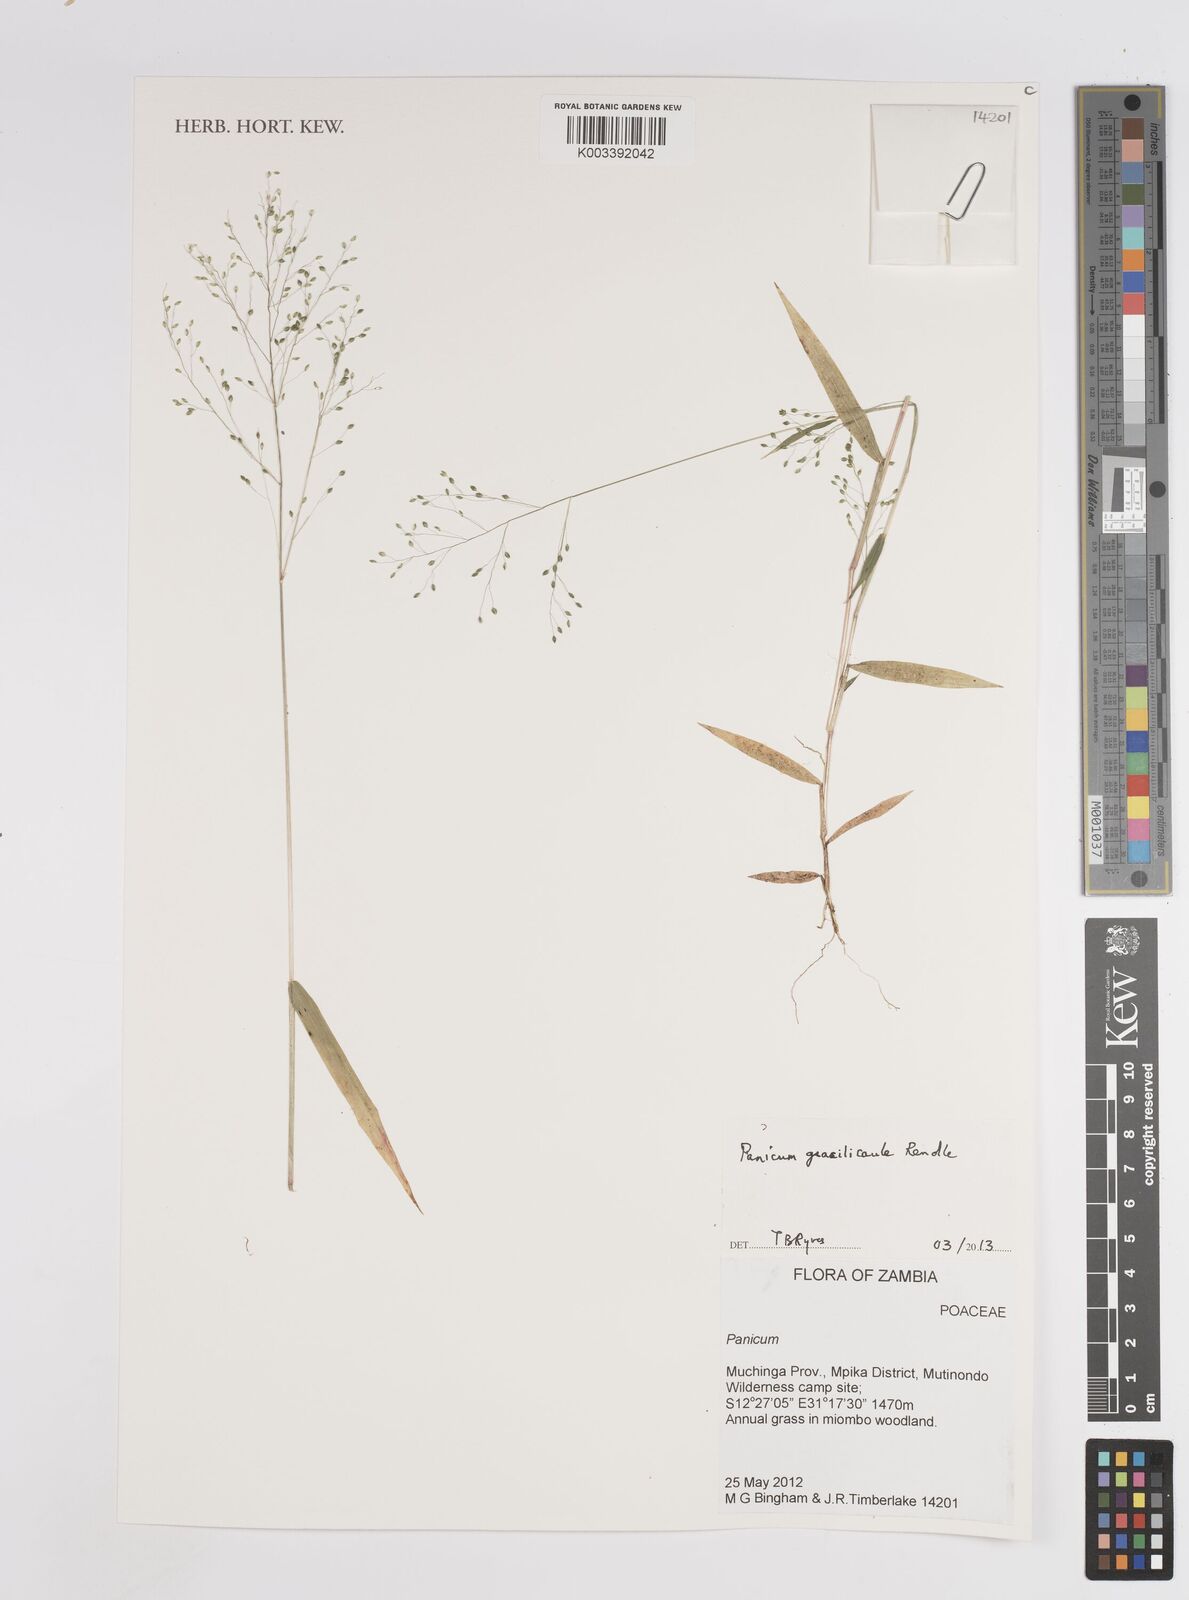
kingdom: Plantae
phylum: Tracheophyta
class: Liliopsida
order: Poales
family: Poaceae
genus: Trichanthecium
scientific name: Trichanthecium gracilicaule
